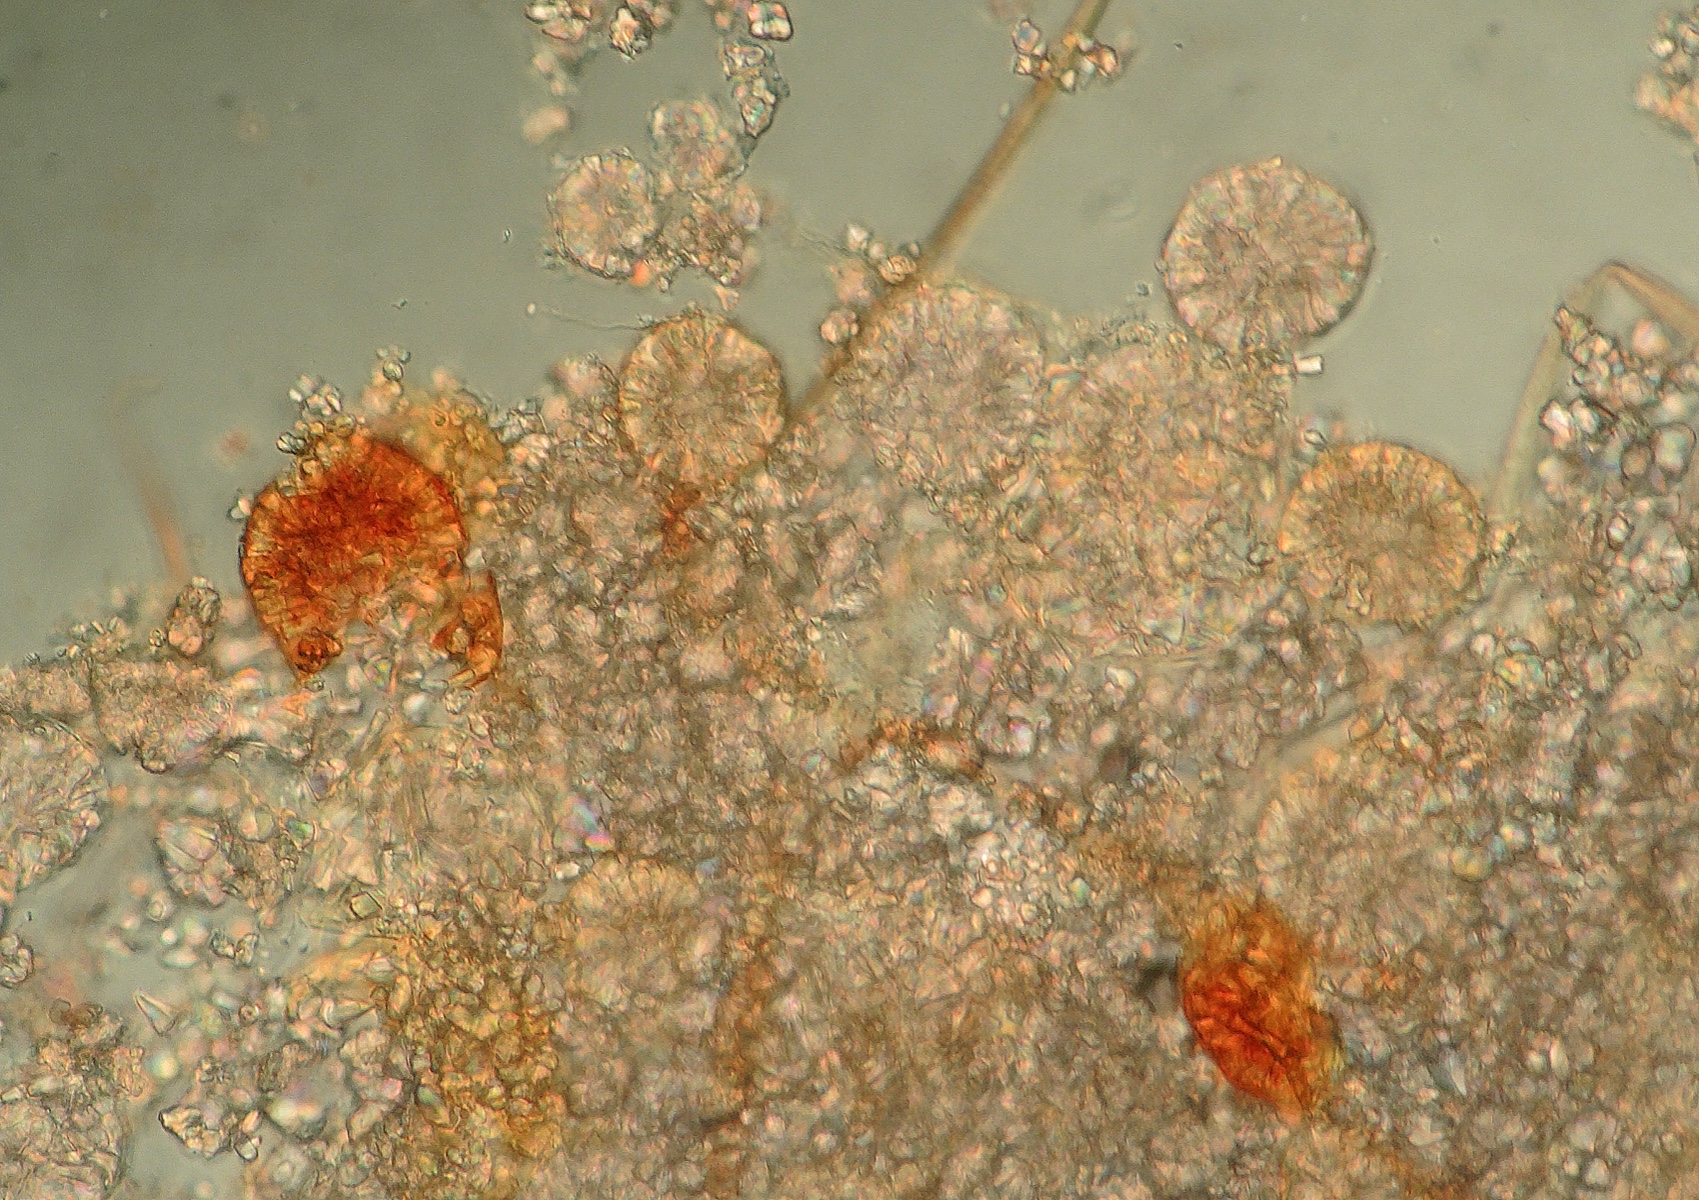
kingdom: Fungi
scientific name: Fungi
